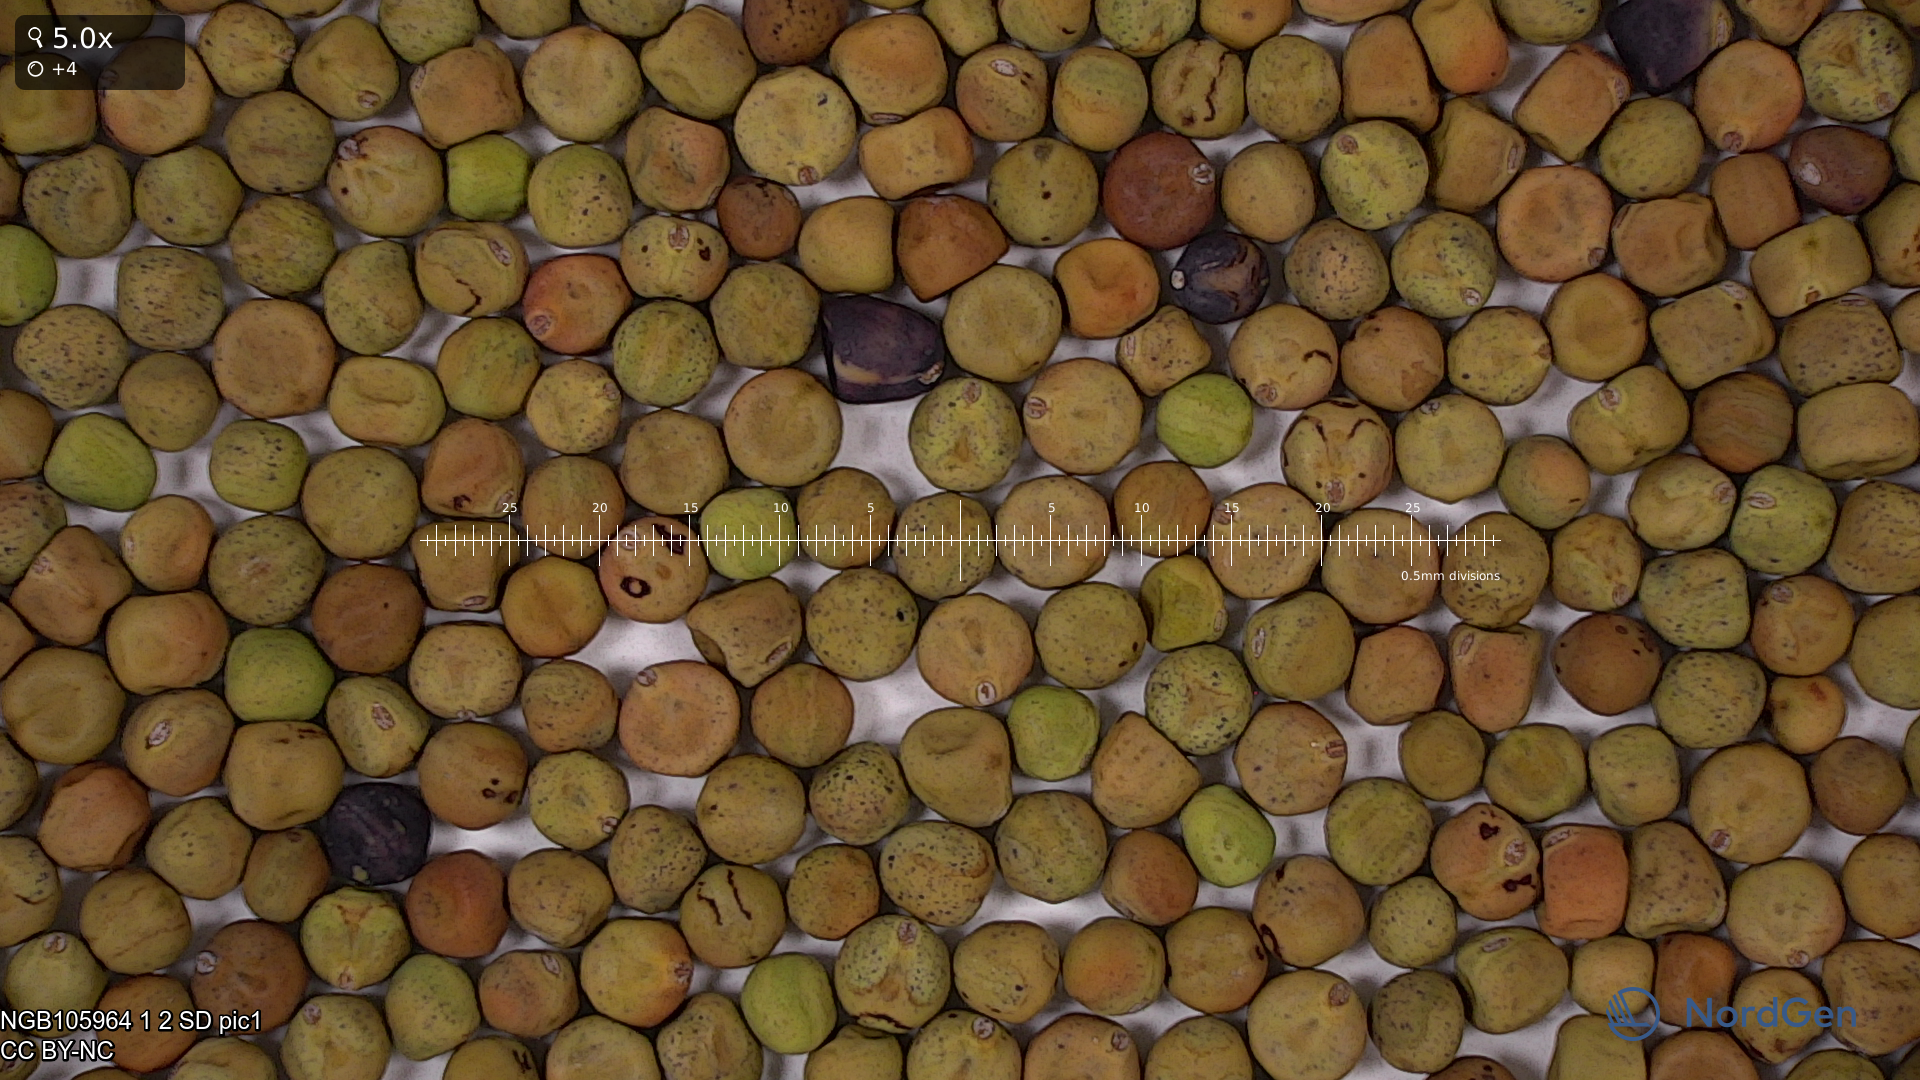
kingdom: Plantae
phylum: Tracheophyta
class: Magnoliopsida
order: Fabales
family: Fabaceae
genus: Lathyrus
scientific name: Lathyrus oleraceus
